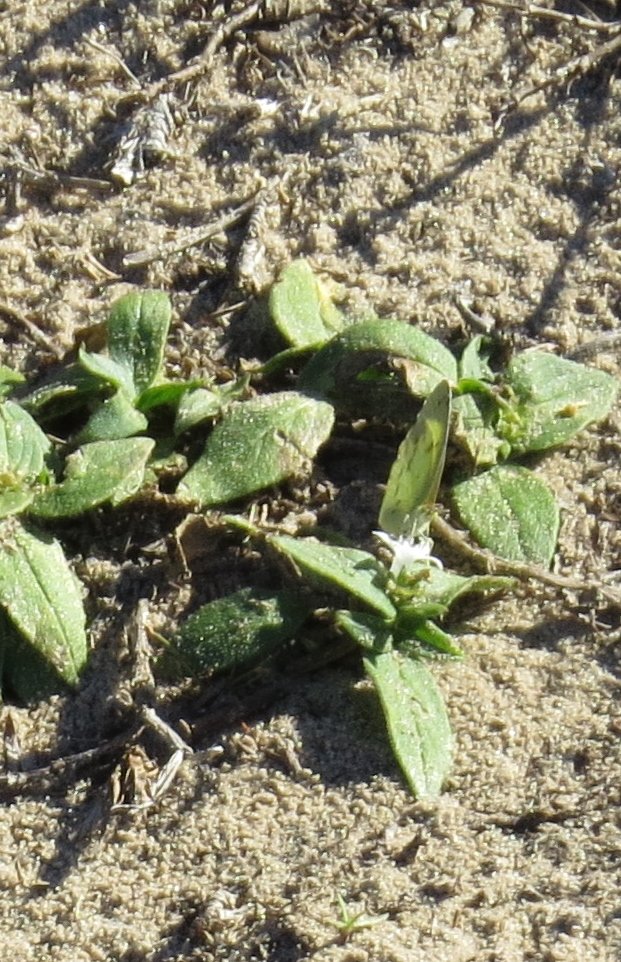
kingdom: Animalia
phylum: Arthropoda
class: Insecta
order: Lepidoptera
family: Pieridae
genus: Pyrisitia
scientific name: Pyrisitia lisa
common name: Little Yellow
